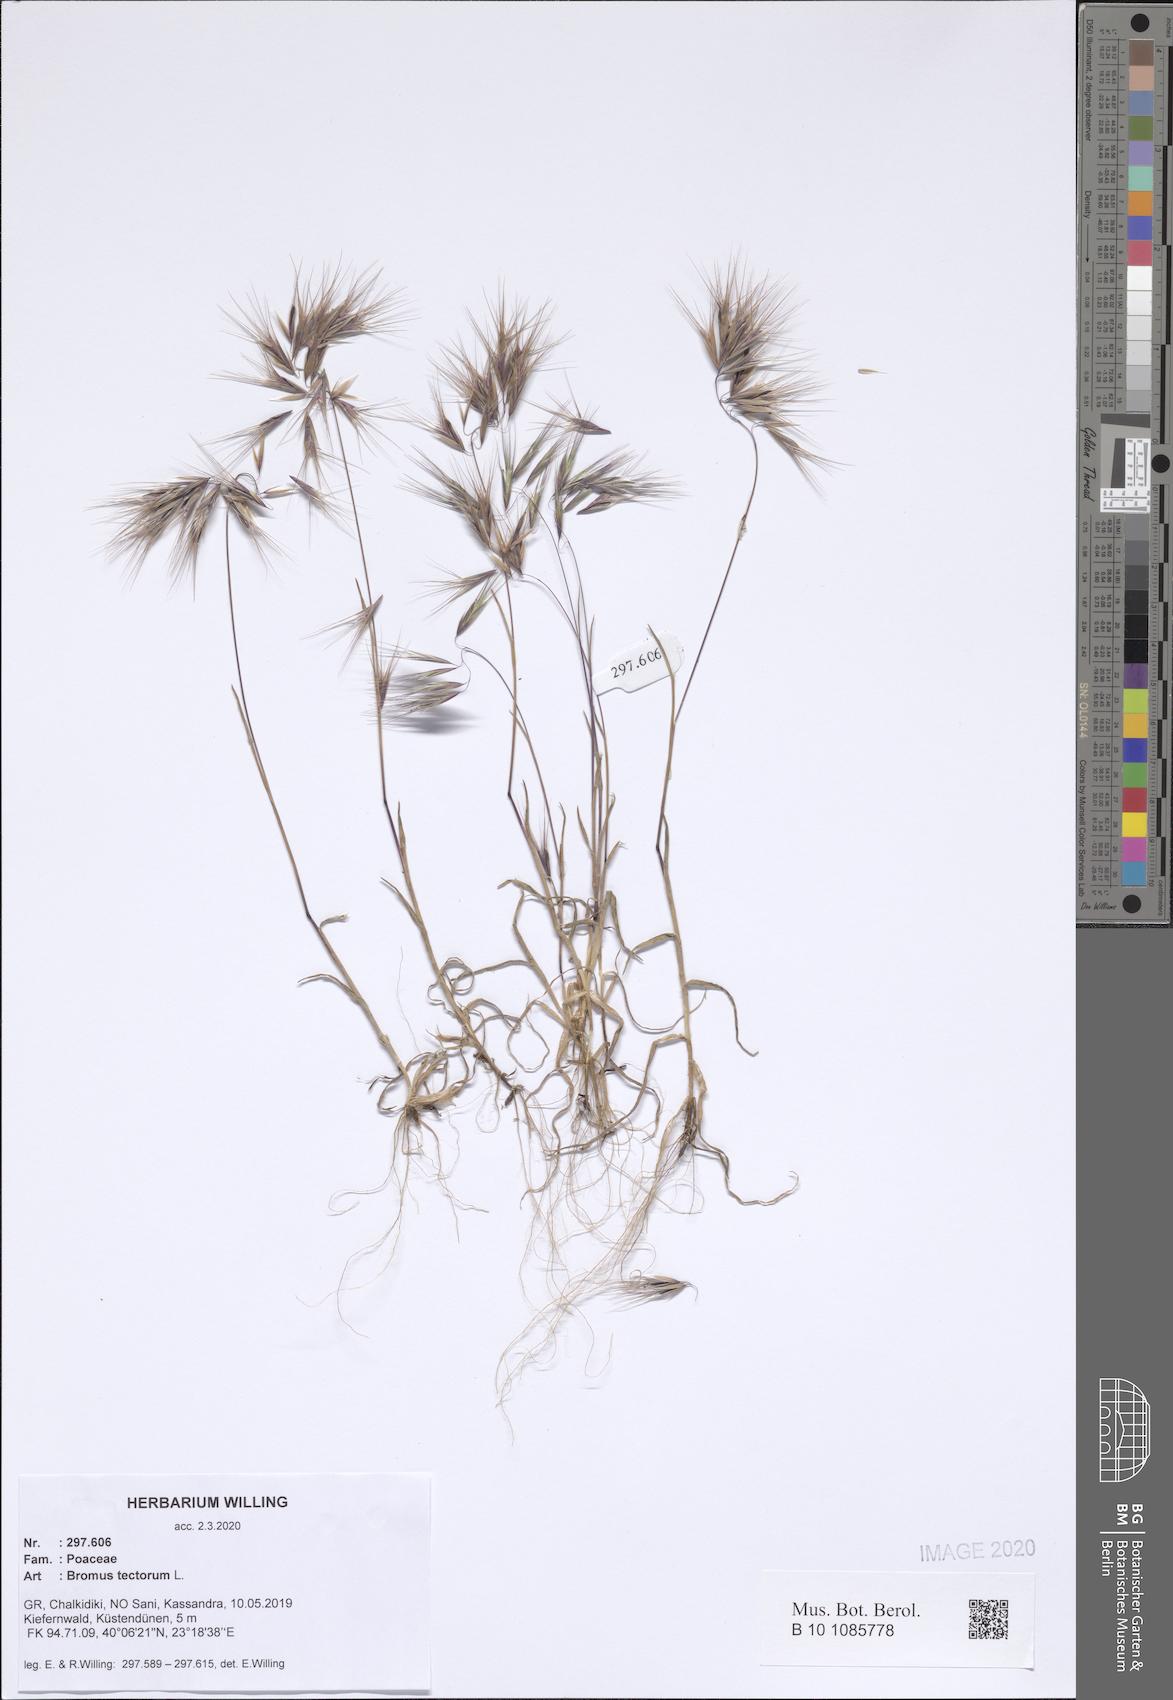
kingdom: Plantae
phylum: Tracheophyta
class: Liliopsida
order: Poales
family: Poaceae
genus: Bromus
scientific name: Bromus tectorum
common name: Cheatgrass
